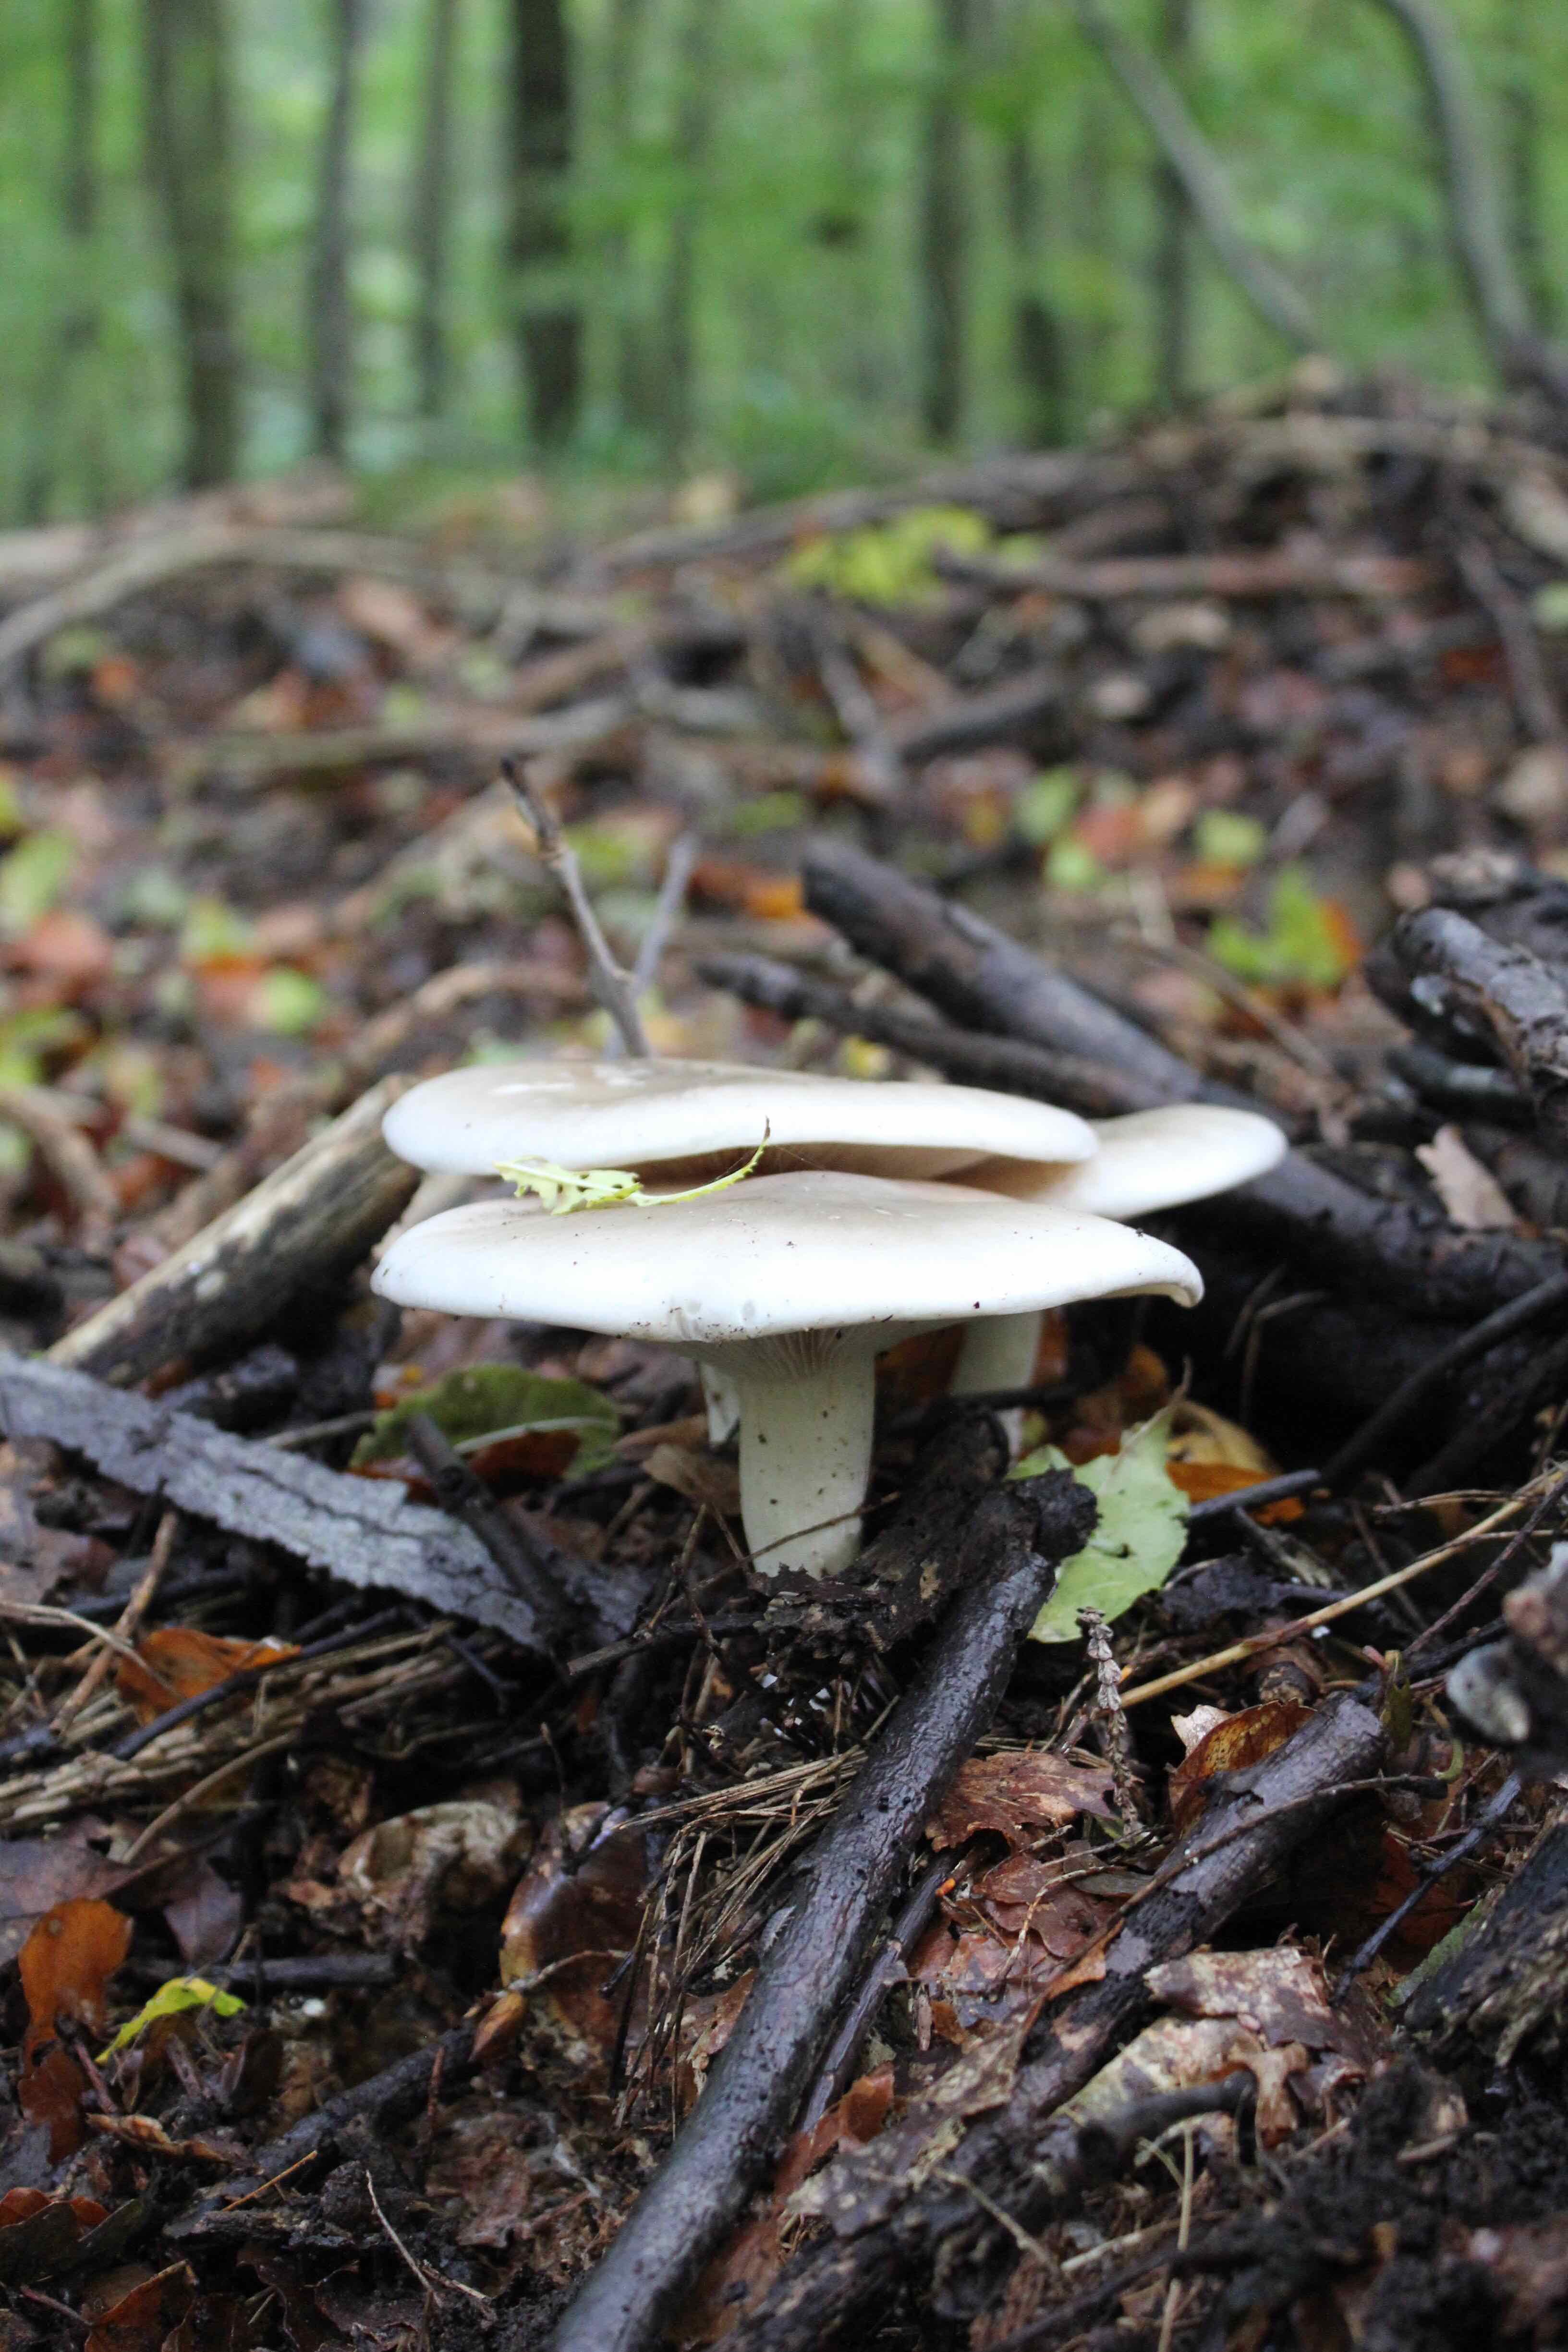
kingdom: Fungi
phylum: Basidiomycota
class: Agaricomycetes
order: Agaricales
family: Tricholomataceae
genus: Clitocybe
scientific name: Clitocybe nebularis
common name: tåge-tragthat
